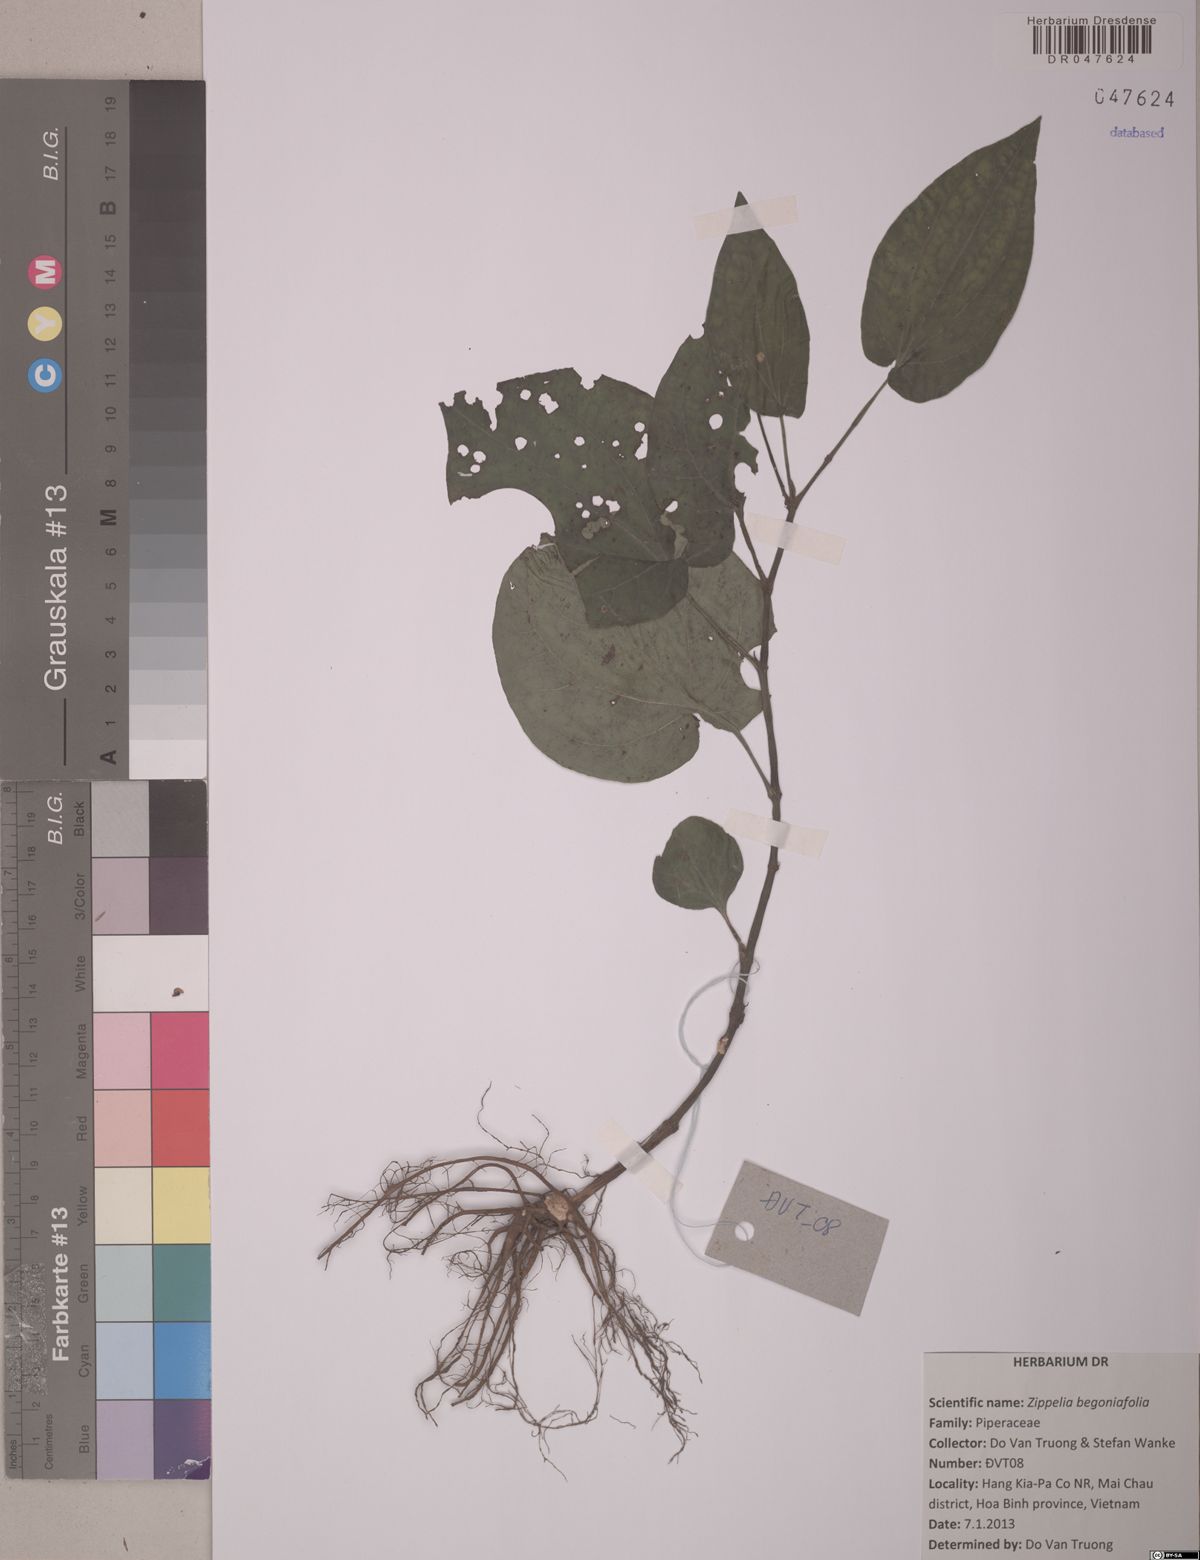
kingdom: Plantae
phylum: Tracheophyta
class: Magnoliopsida
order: Piperales
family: Piperaceae
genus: Zippelia
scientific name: Zippelia begoniifolia
